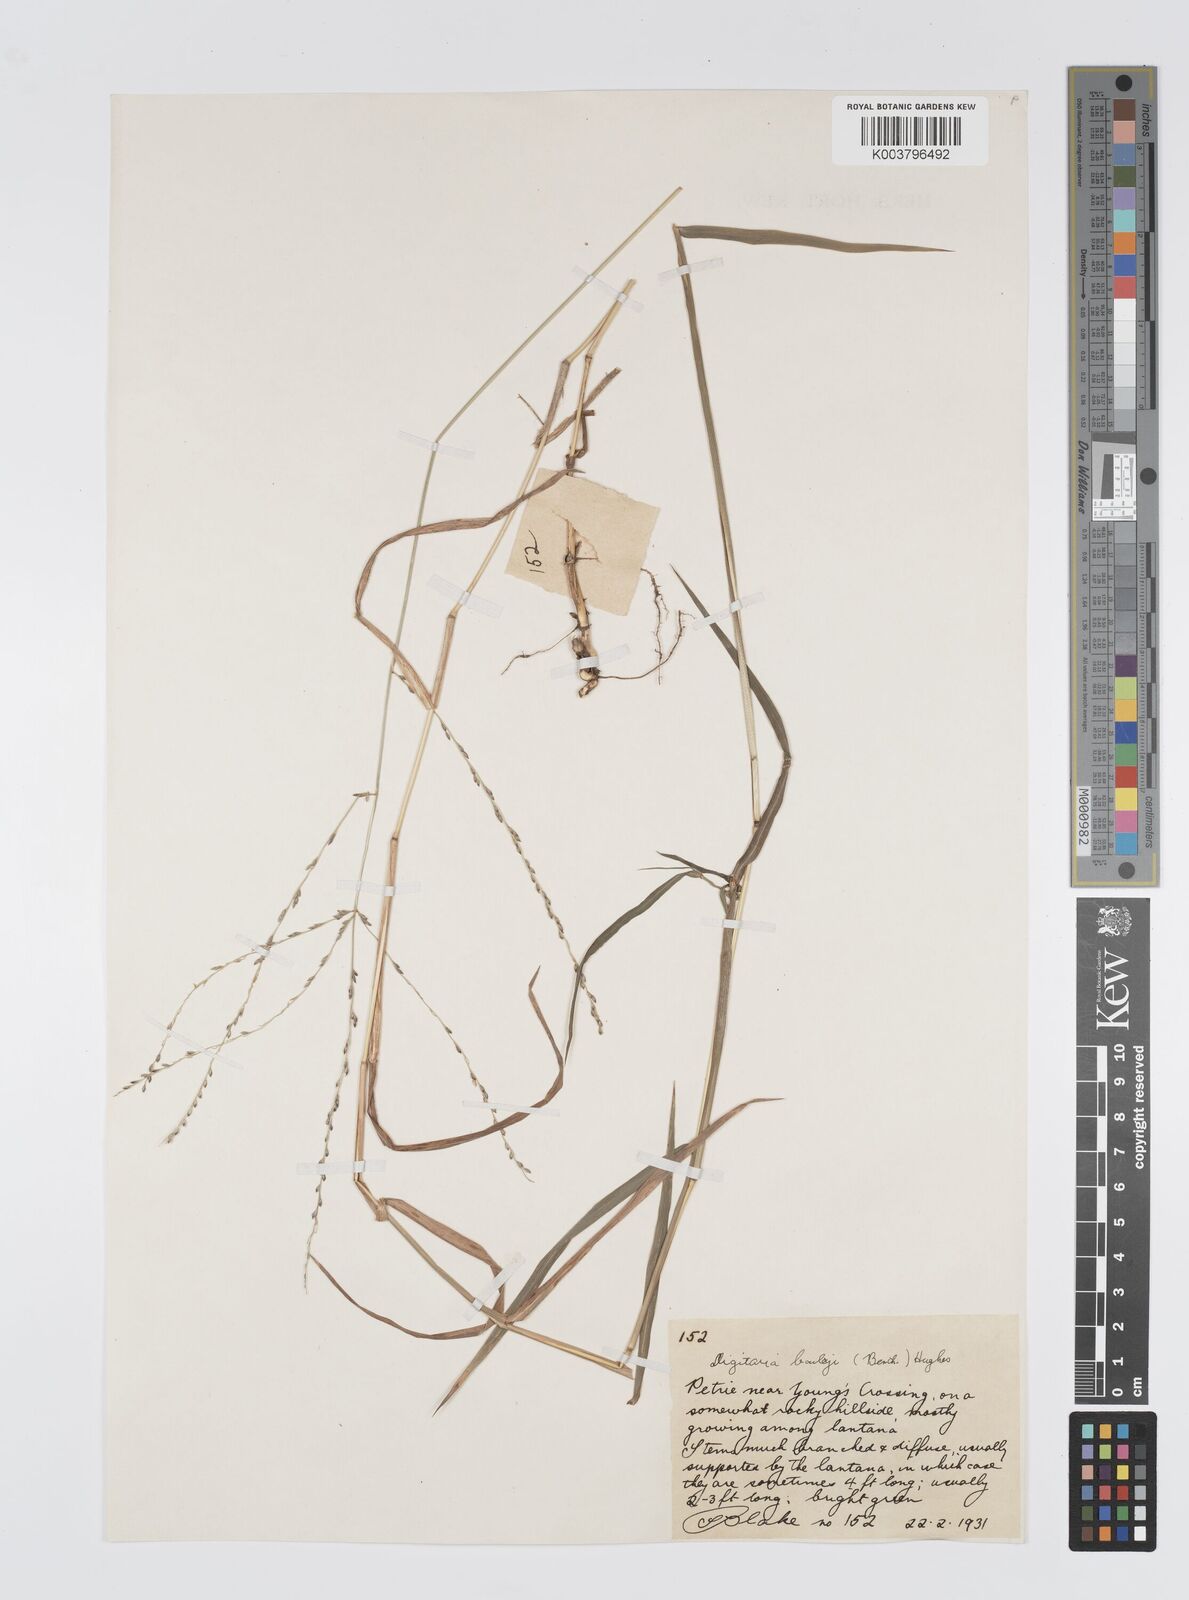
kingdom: Plantae
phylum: Tracheophyta
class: Liliopsida
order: Poales
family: Poaceae
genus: Digitaria
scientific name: Digitaria baileyi
